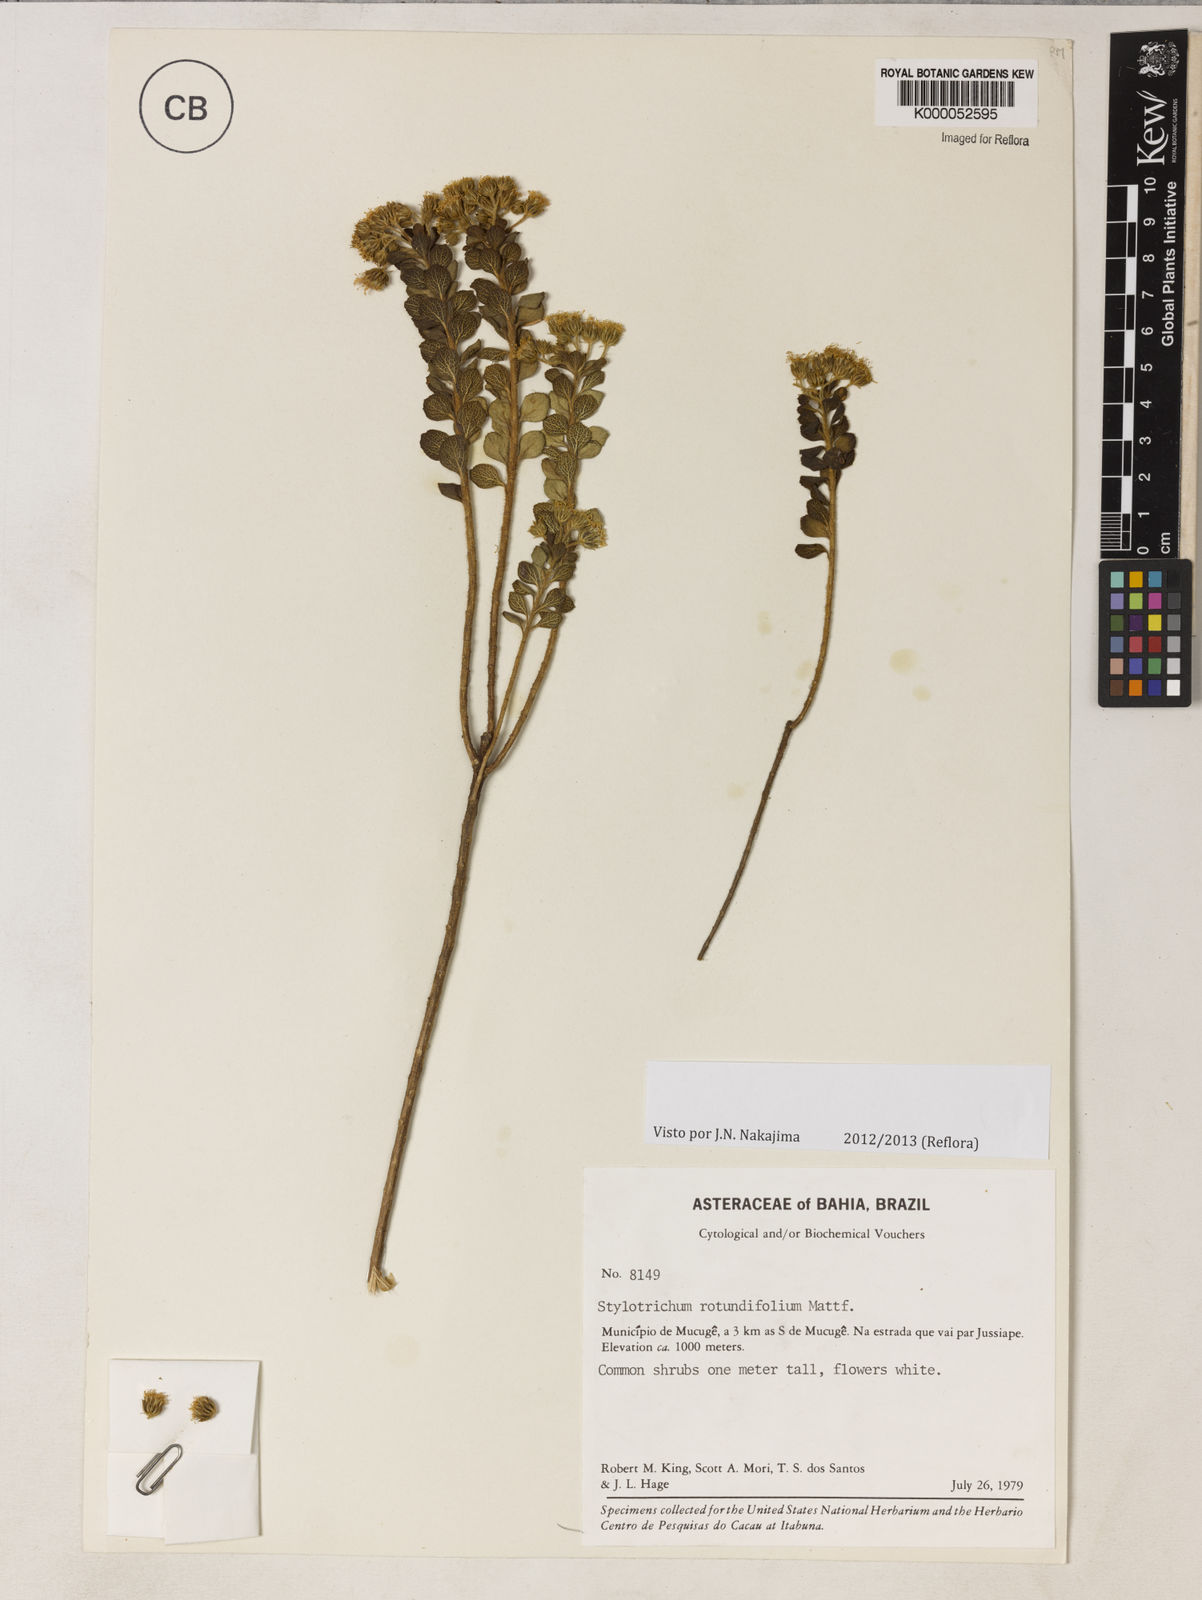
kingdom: Plantae
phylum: Tracheophyta
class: Magnoliopsida
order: Asterales
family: Asteraceae
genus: Stylotrichium
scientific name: Stylotrichium rotundifolium
